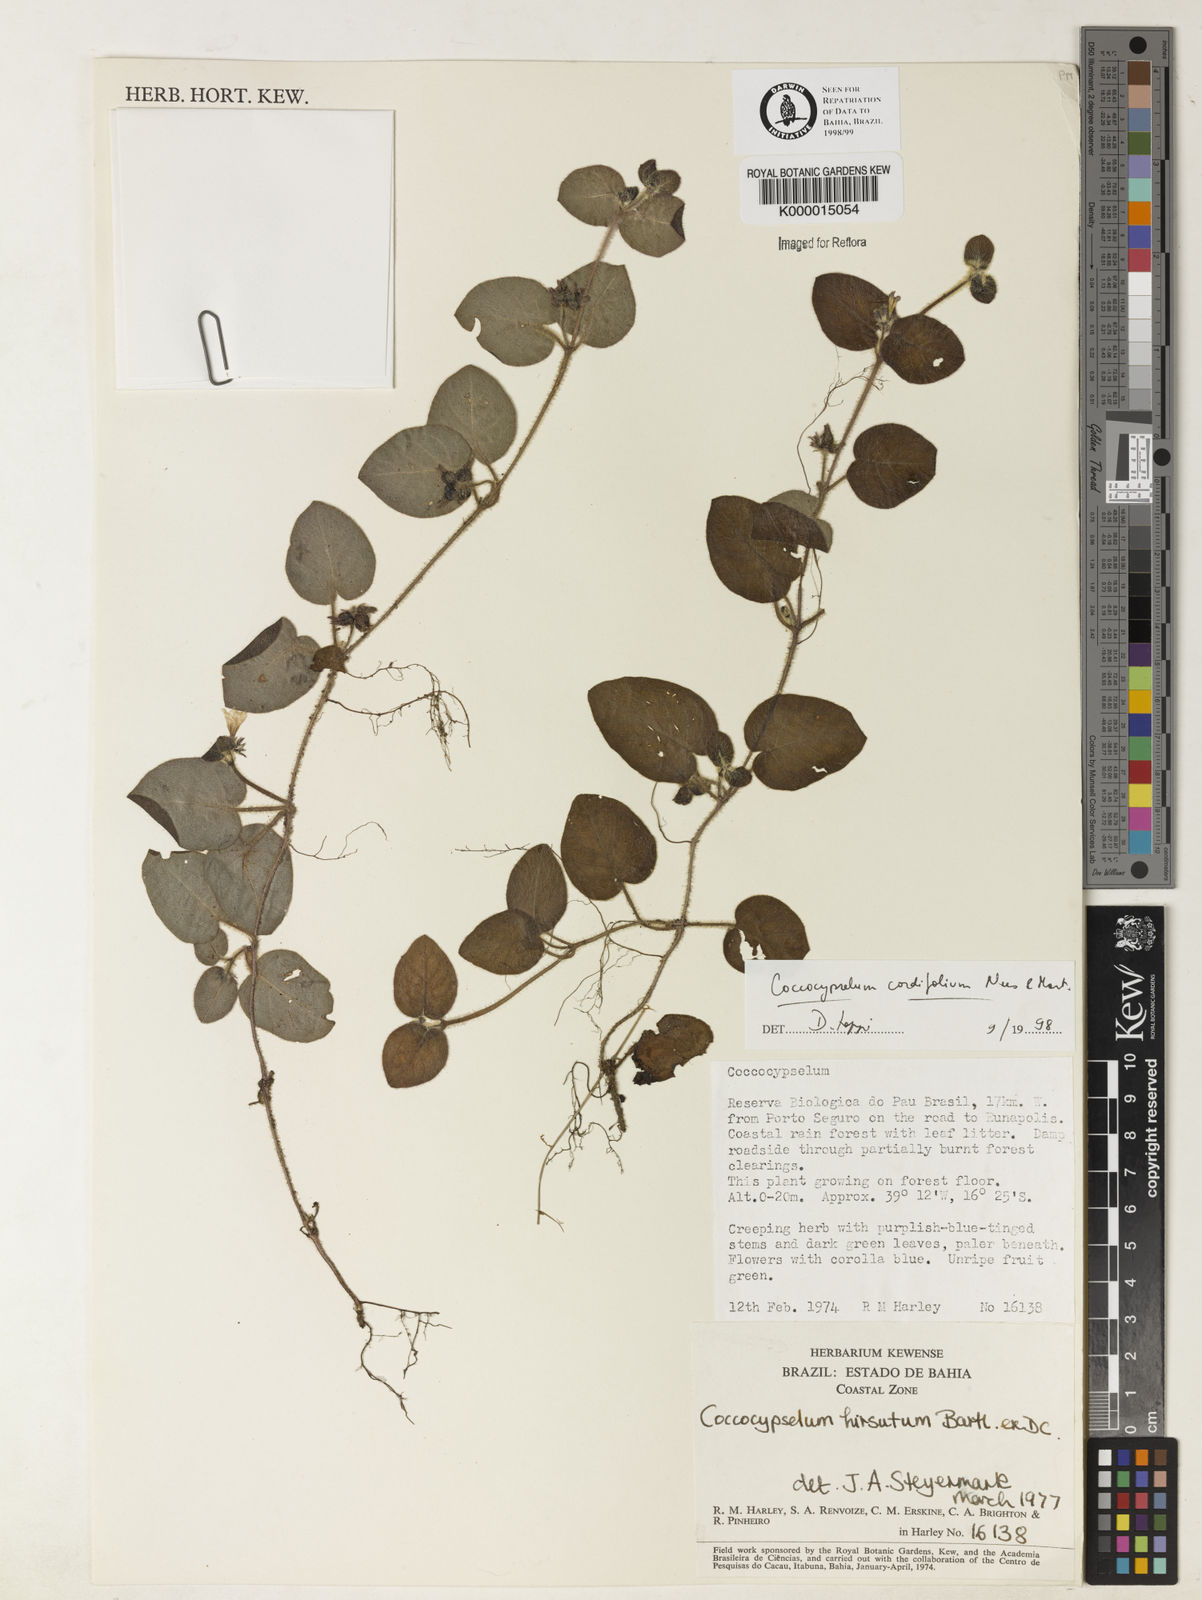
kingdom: Plantae
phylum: Tracheophyta
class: Magnoliopsida
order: Gentianales
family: Rubiaceae
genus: Coccocypselum
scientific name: Coccocypselum cordifolium
